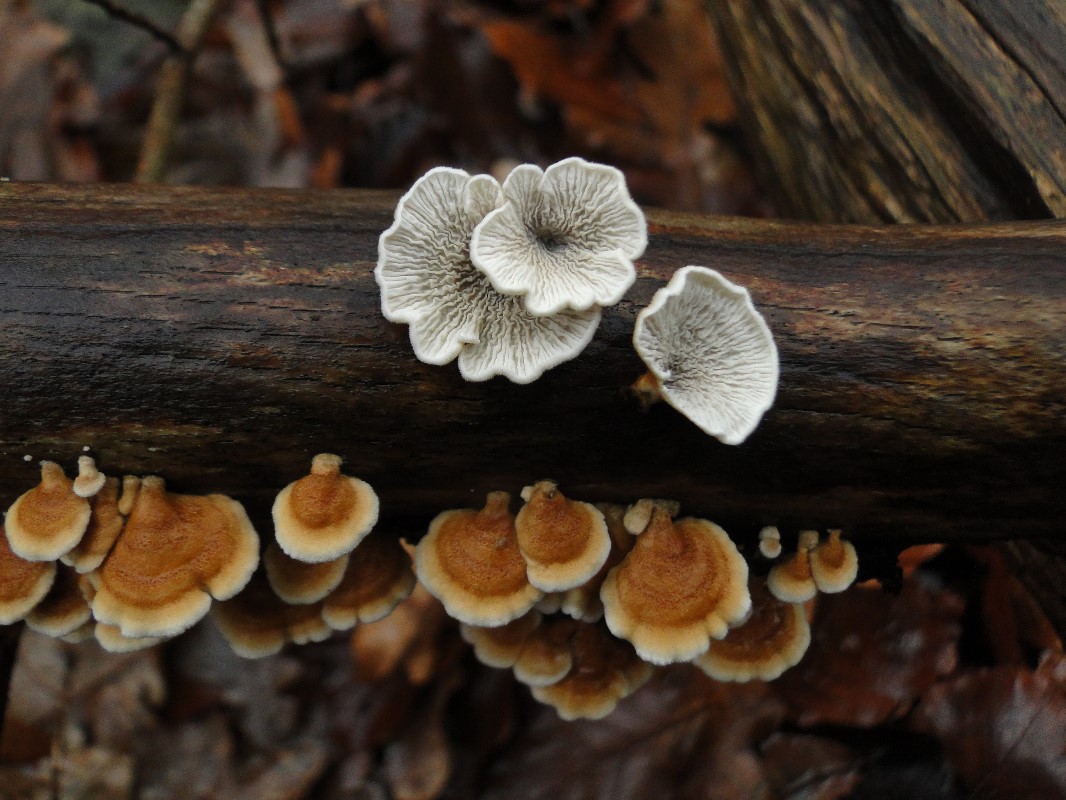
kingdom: Fungi
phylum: Basidiomycota
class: Agaricomycetes
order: Amylocorticiales
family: Amylocorticiaceae
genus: Plicaturopsis
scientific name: Plicaturopsis crispa
